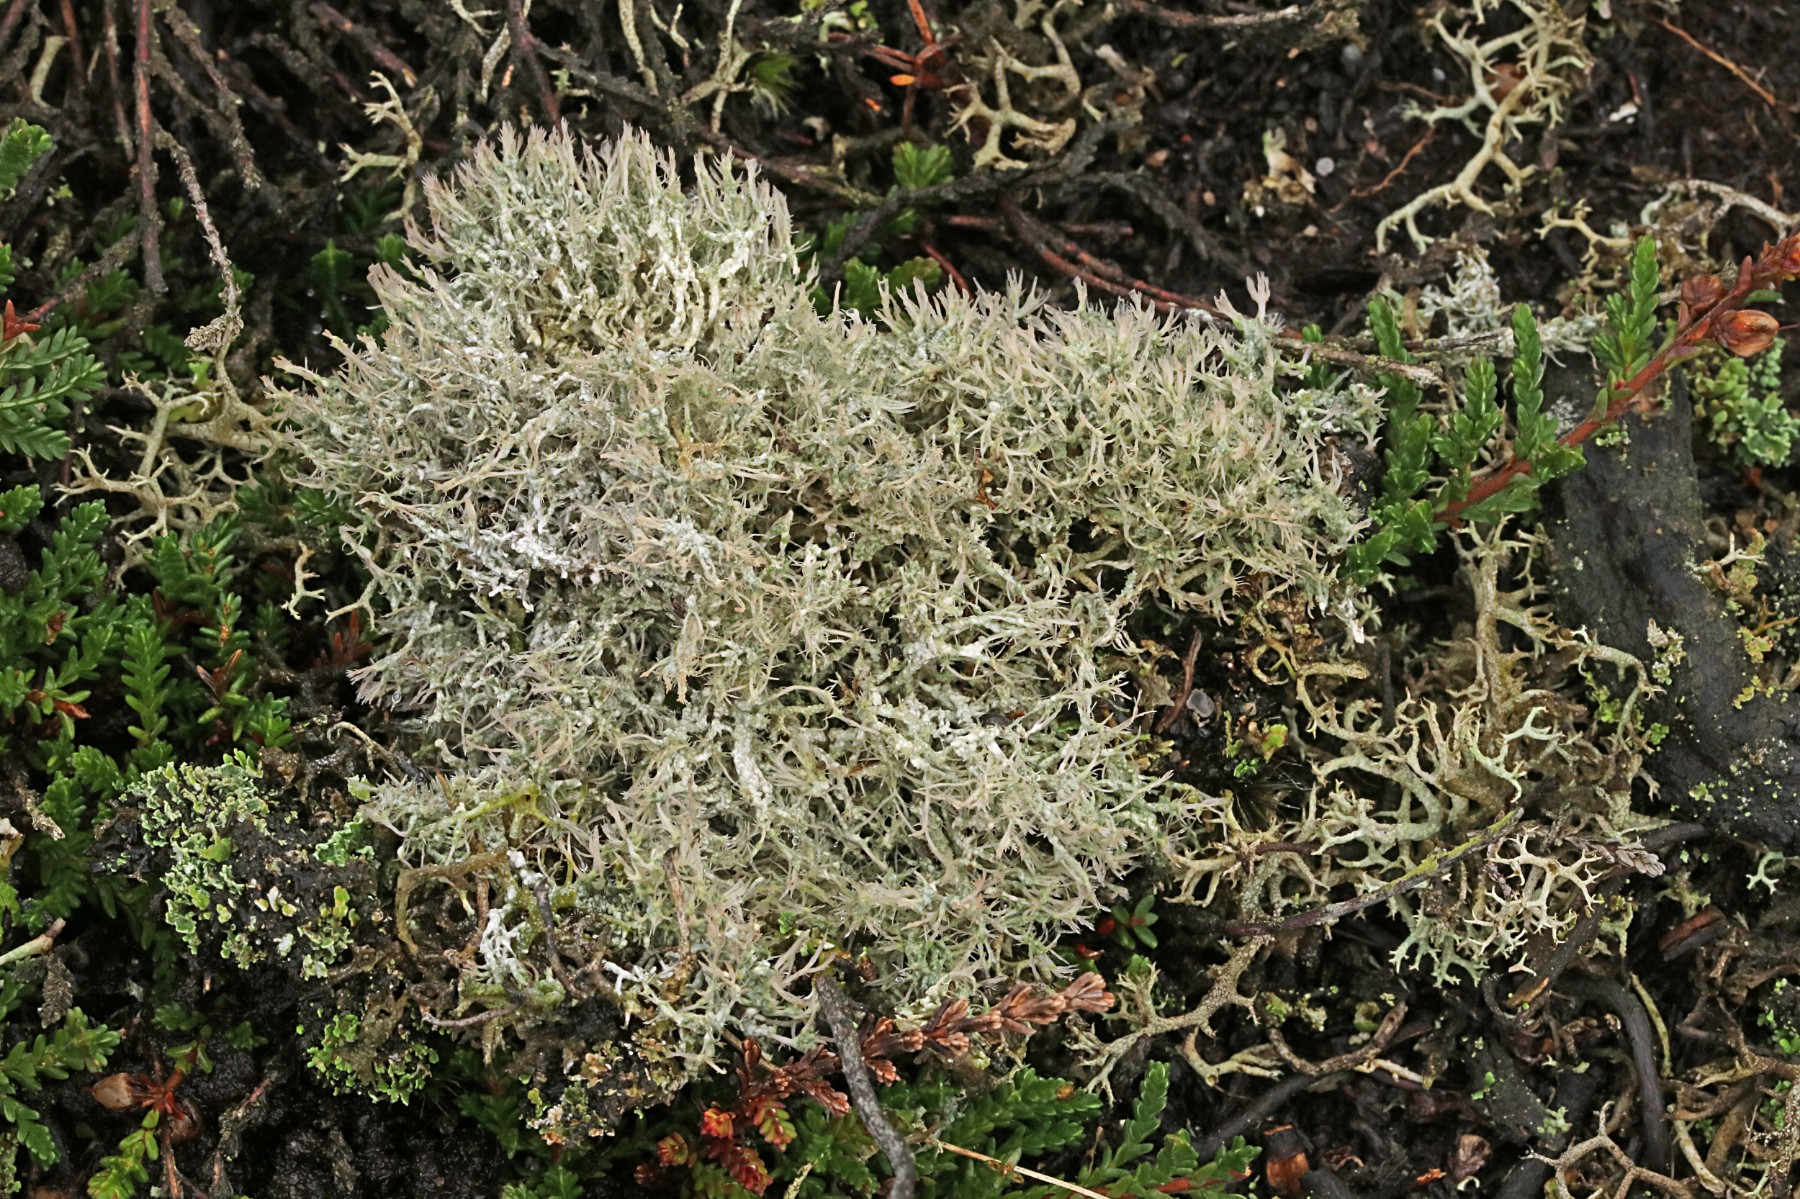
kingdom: Fungi
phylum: Ascomycota
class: Lecanoromycetes
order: Pertusariales
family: Ochrolechiaceae
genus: Ochrolechia
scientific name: Ochrolechia frigida
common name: fjeld-blegskivelav
